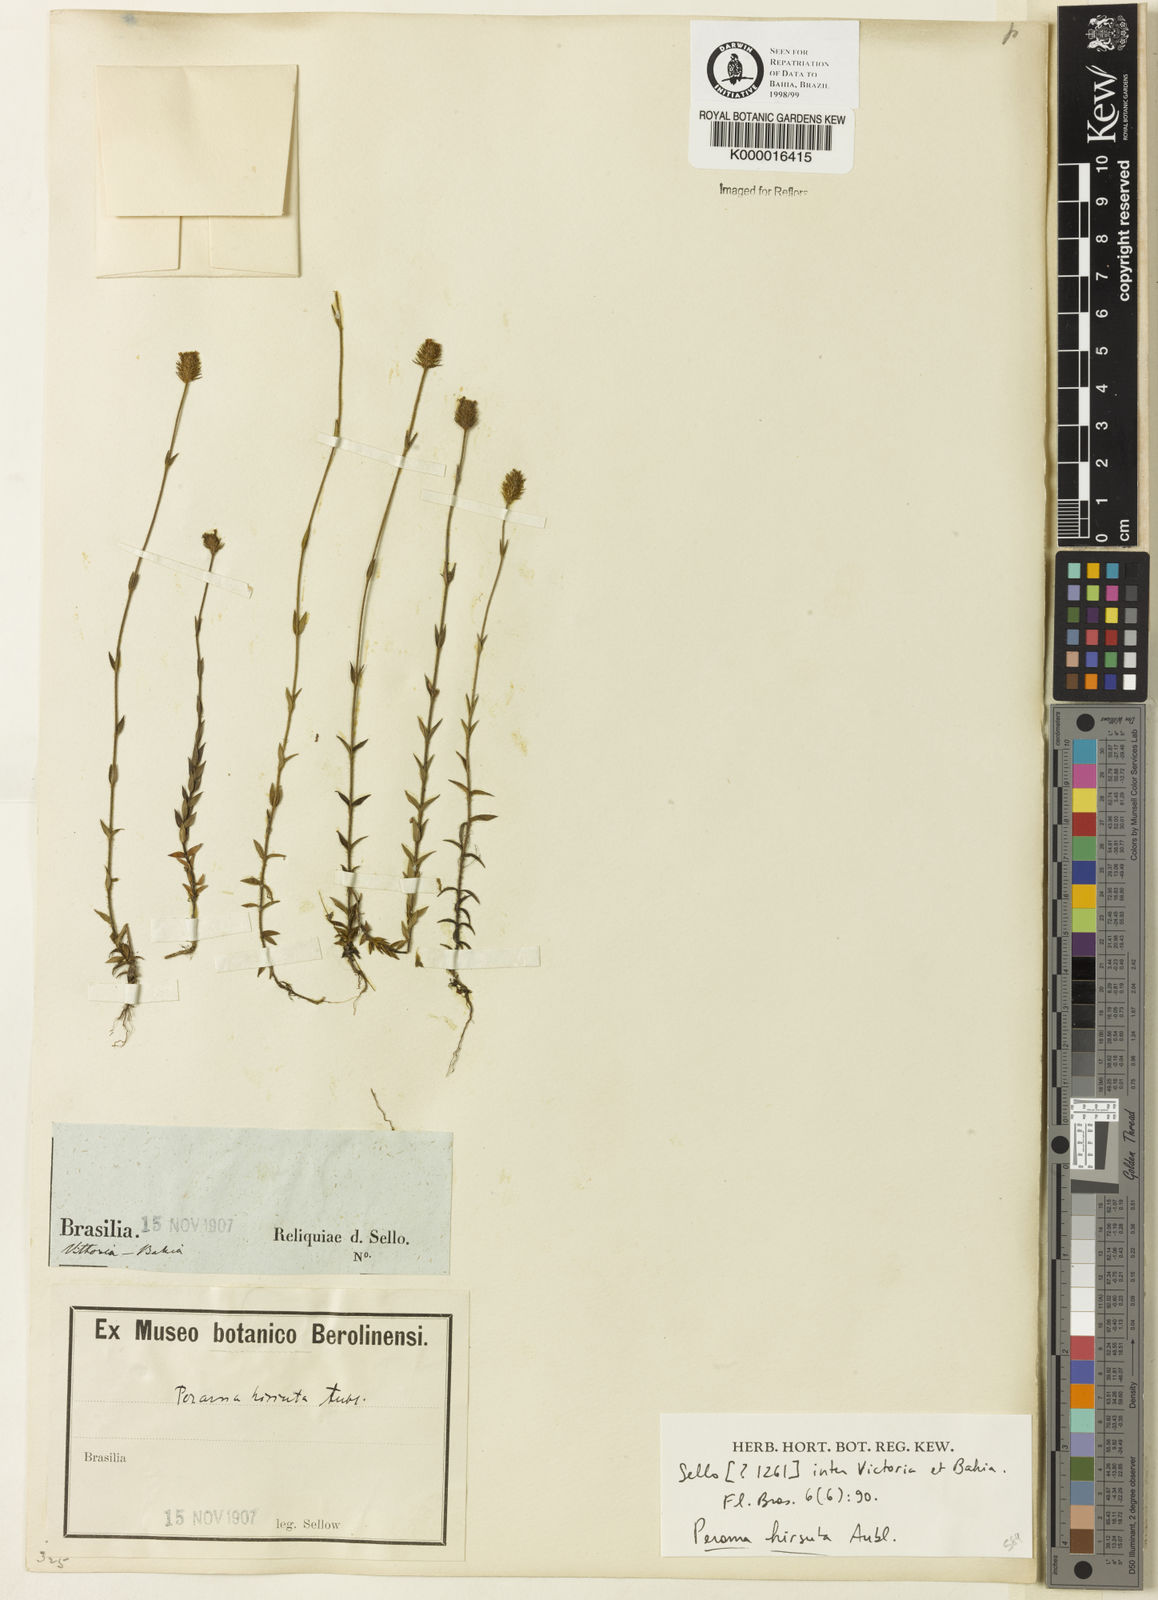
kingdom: Plantae
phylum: Tracheophyta
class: Magnoliopsida
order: Gentianales
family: Rubiaceae
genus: Perama
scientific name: Perama hirsuta
